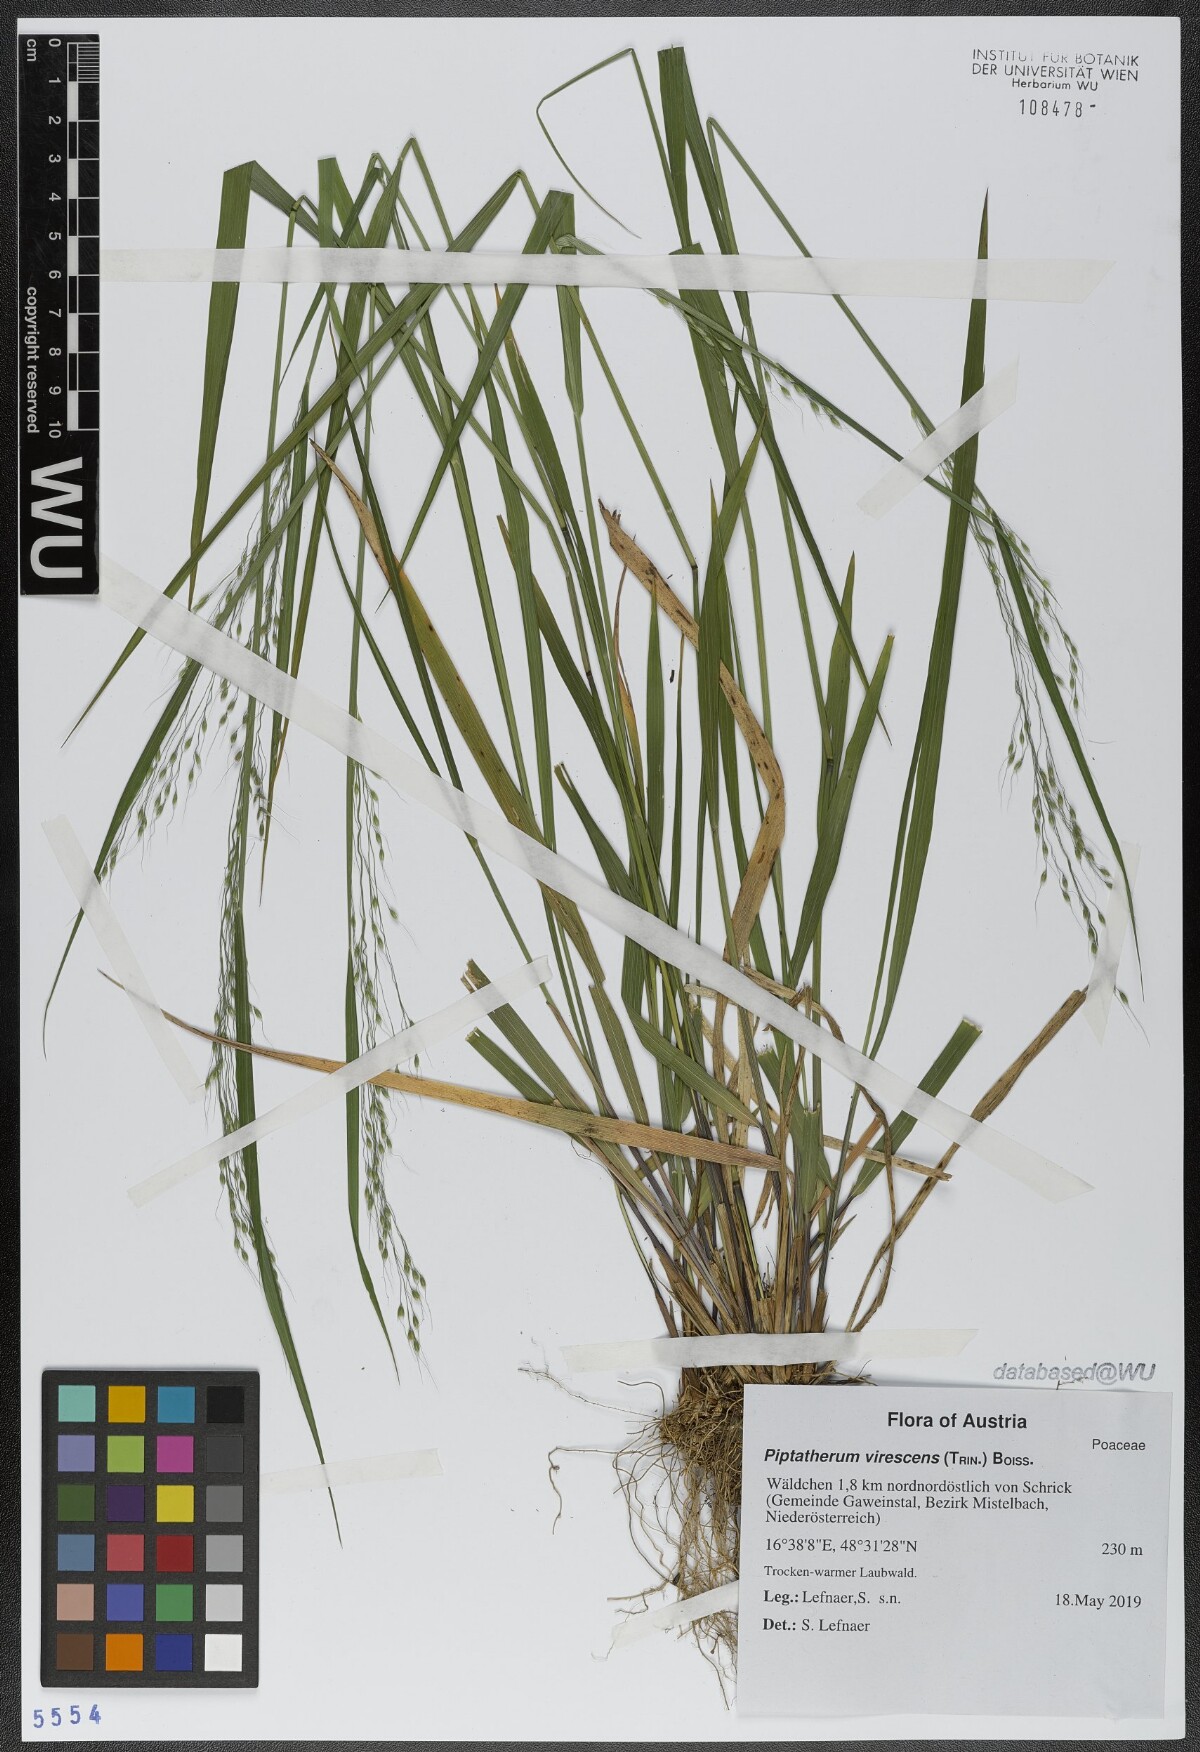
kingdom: Plantae
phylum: Tracheophyta
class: Liliopsida
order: Poales
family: Poaceae
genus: Achnatherum
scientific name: Achnatherum virescens
